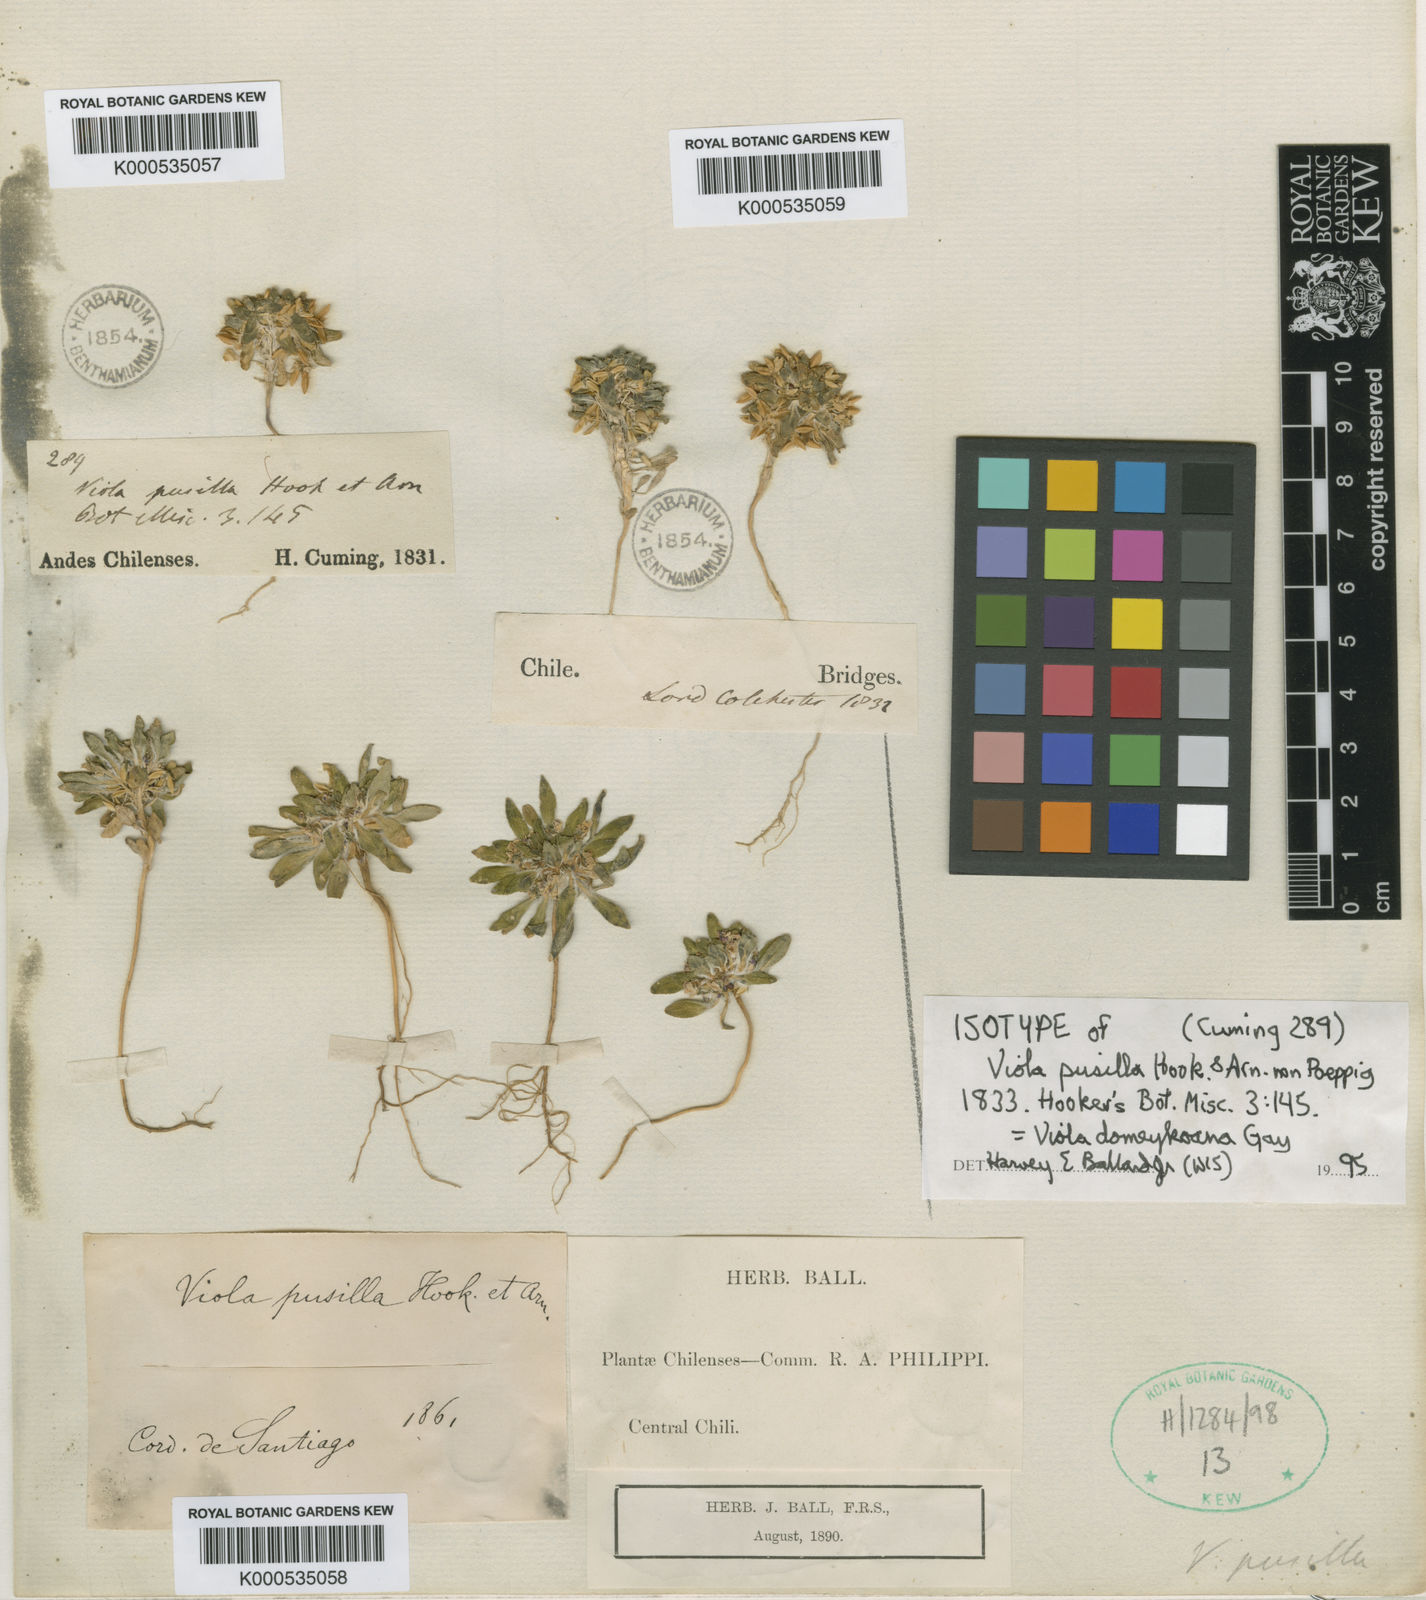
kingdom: Plantae
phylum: Tracheophyta
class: Magnoliopsida
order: Malpighiales
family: Violaceae
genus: Viola
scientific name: Viola
